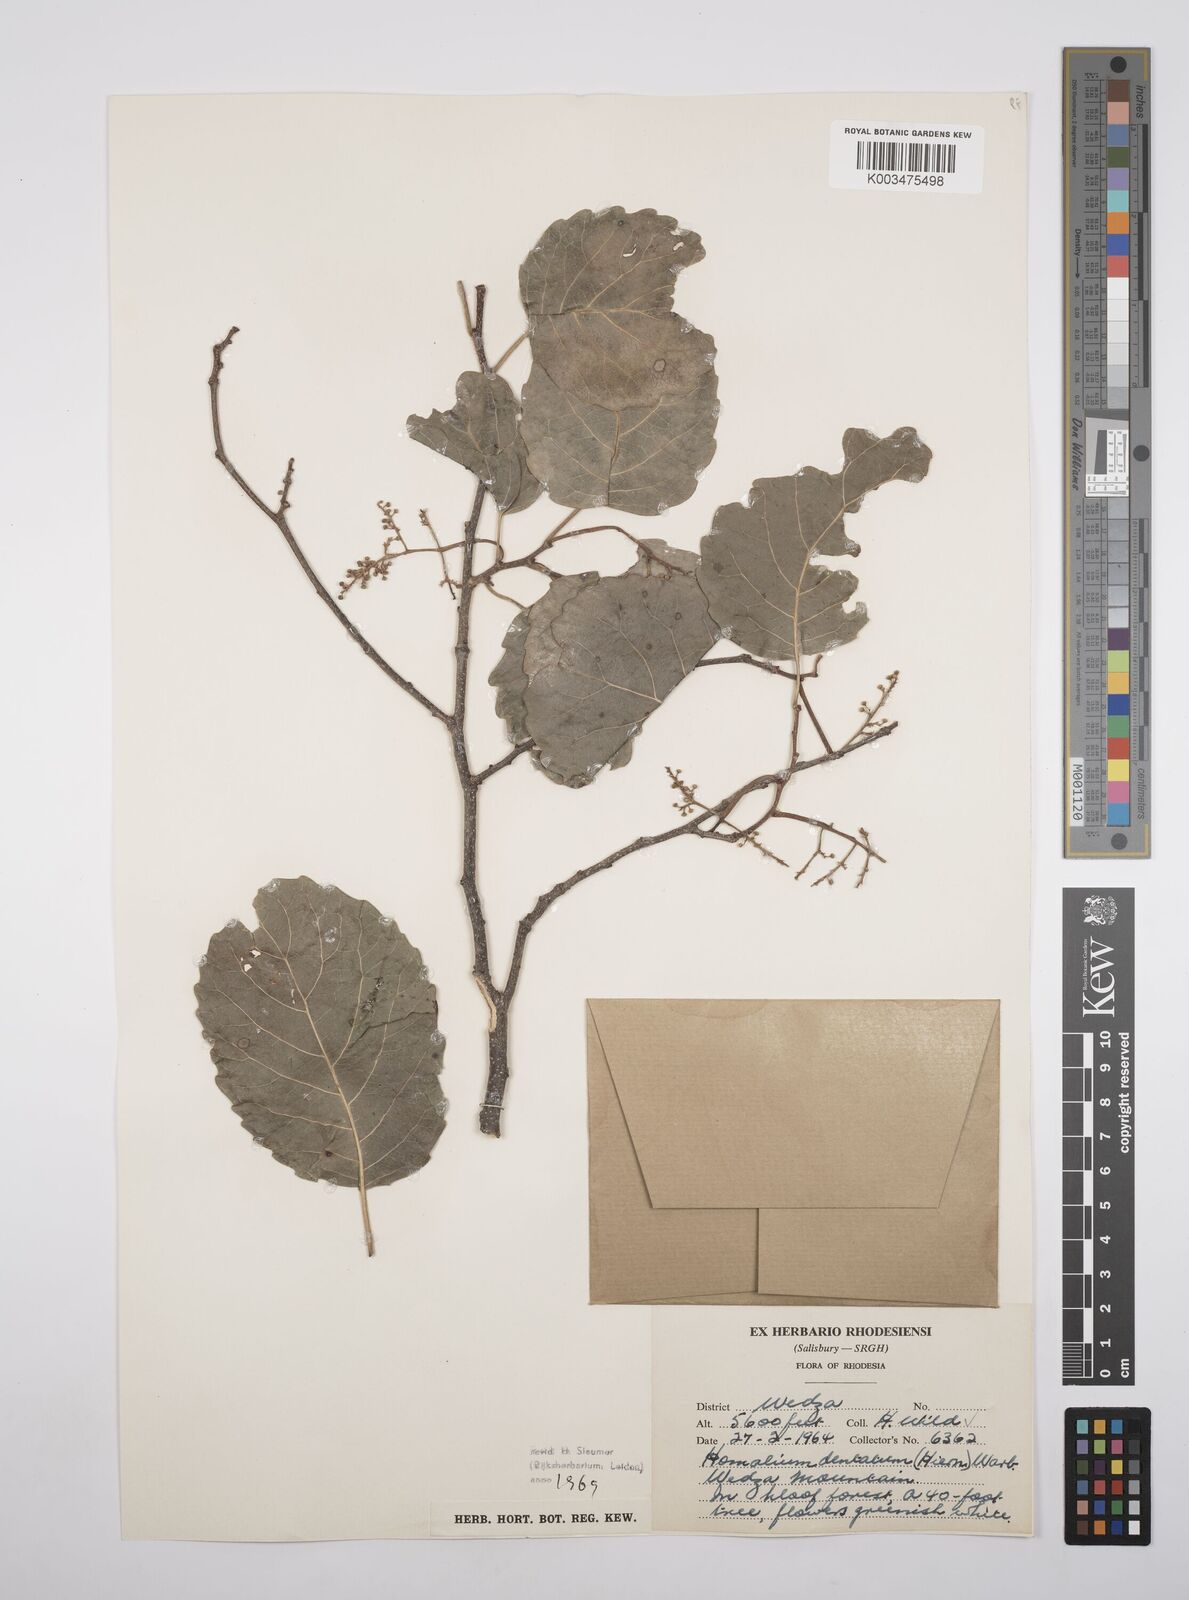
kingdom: Plantae
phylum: Tracheophyta
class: Magnoliopsida
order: Malpighiales
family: Salicaceae
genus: Homalium
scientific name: Homalium dentatum
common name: Brown ironwood
